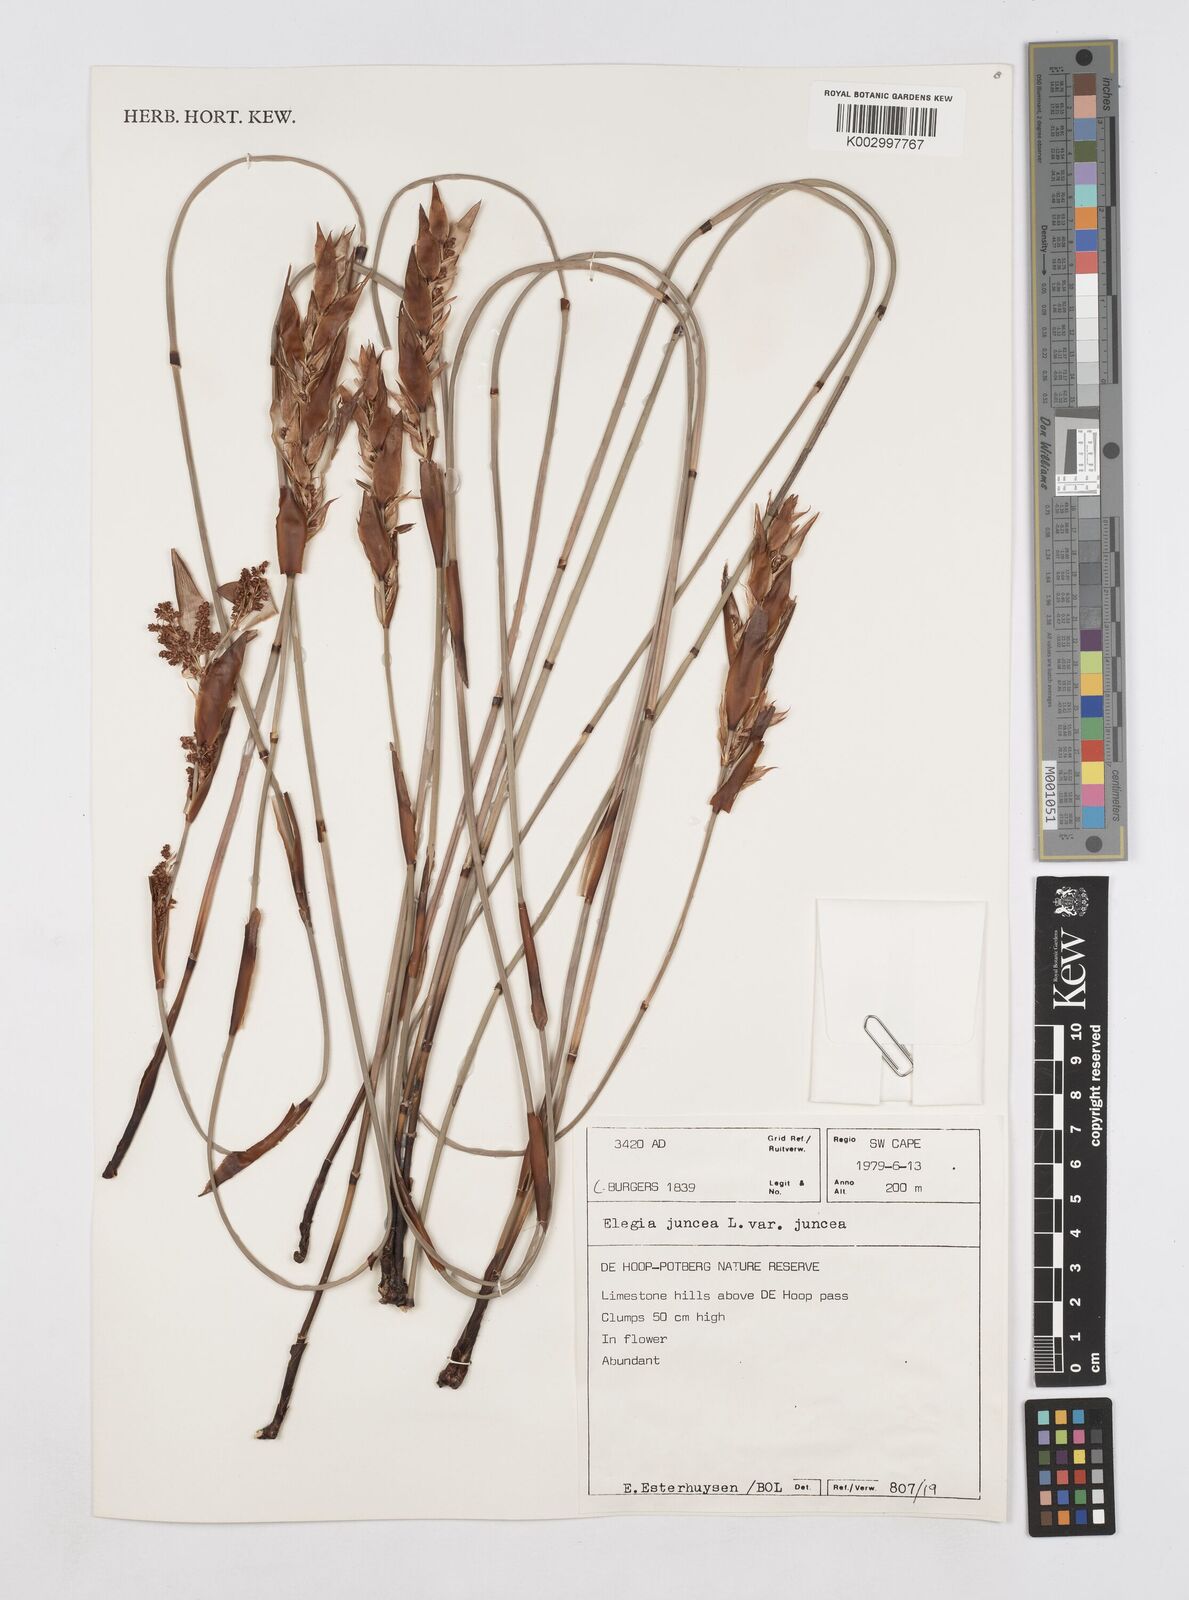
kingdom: Plantae
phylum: Tracheophyta
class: Liliopsida
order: Poales
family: Restionaceae
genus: Elegia
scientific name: Elegia juncea
